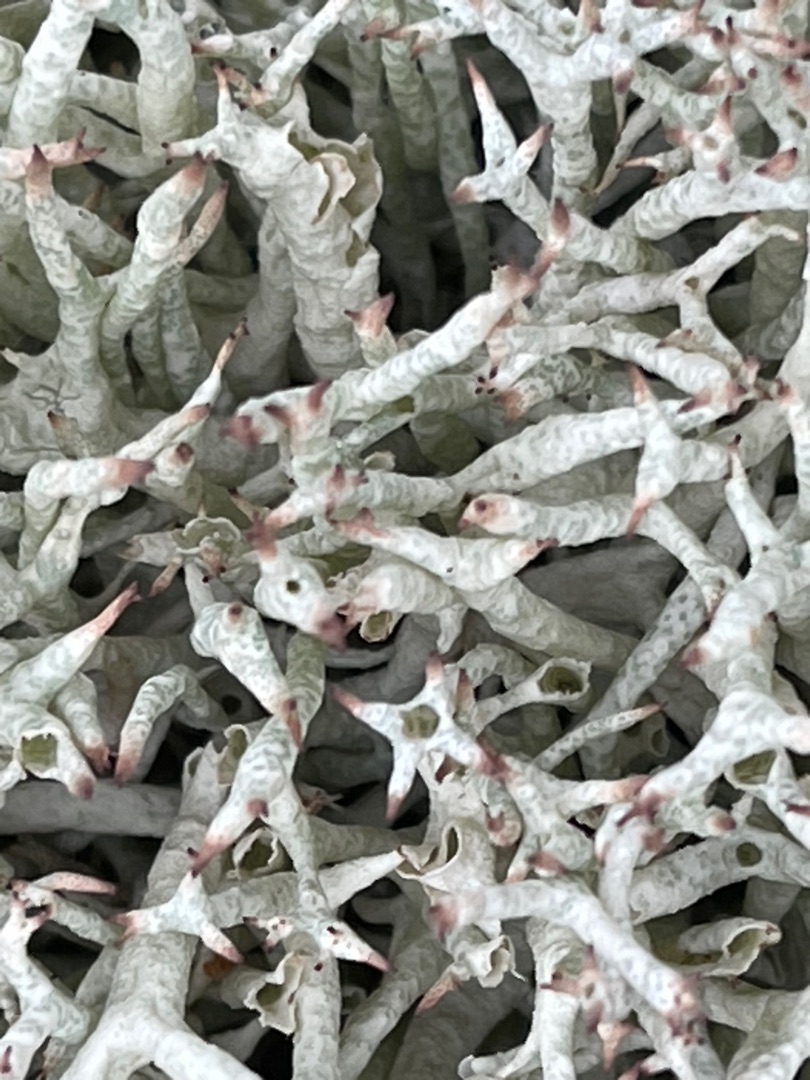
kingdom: Fungi
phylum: Ascomycota
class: Lecanoromycetes
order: Lecanorales
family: Cladoniaceae
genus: Cladonia
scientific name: Cladonia uncialis
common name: Pigget bægerlav
